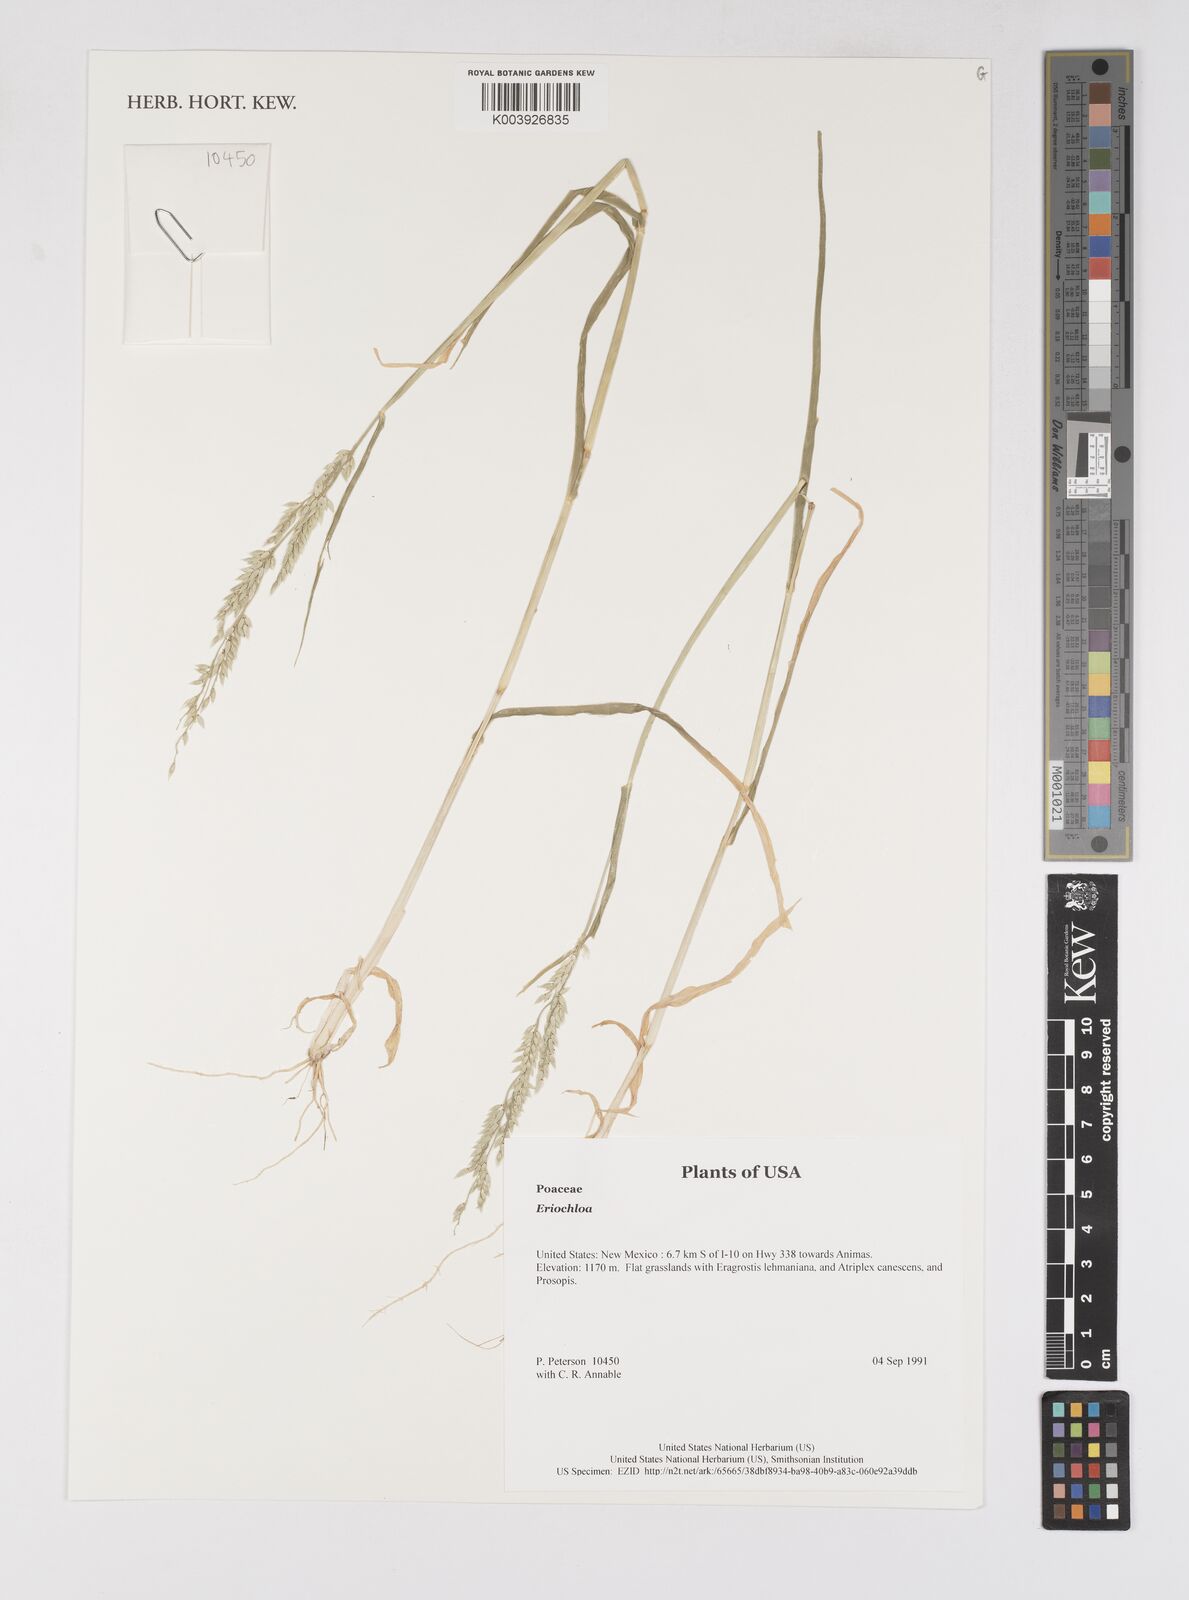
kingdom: Plantae
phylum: Tracheophyta
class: Liliopsida
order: Poales
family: Poaceae
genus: Eriochloa
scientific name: Eriochloa
